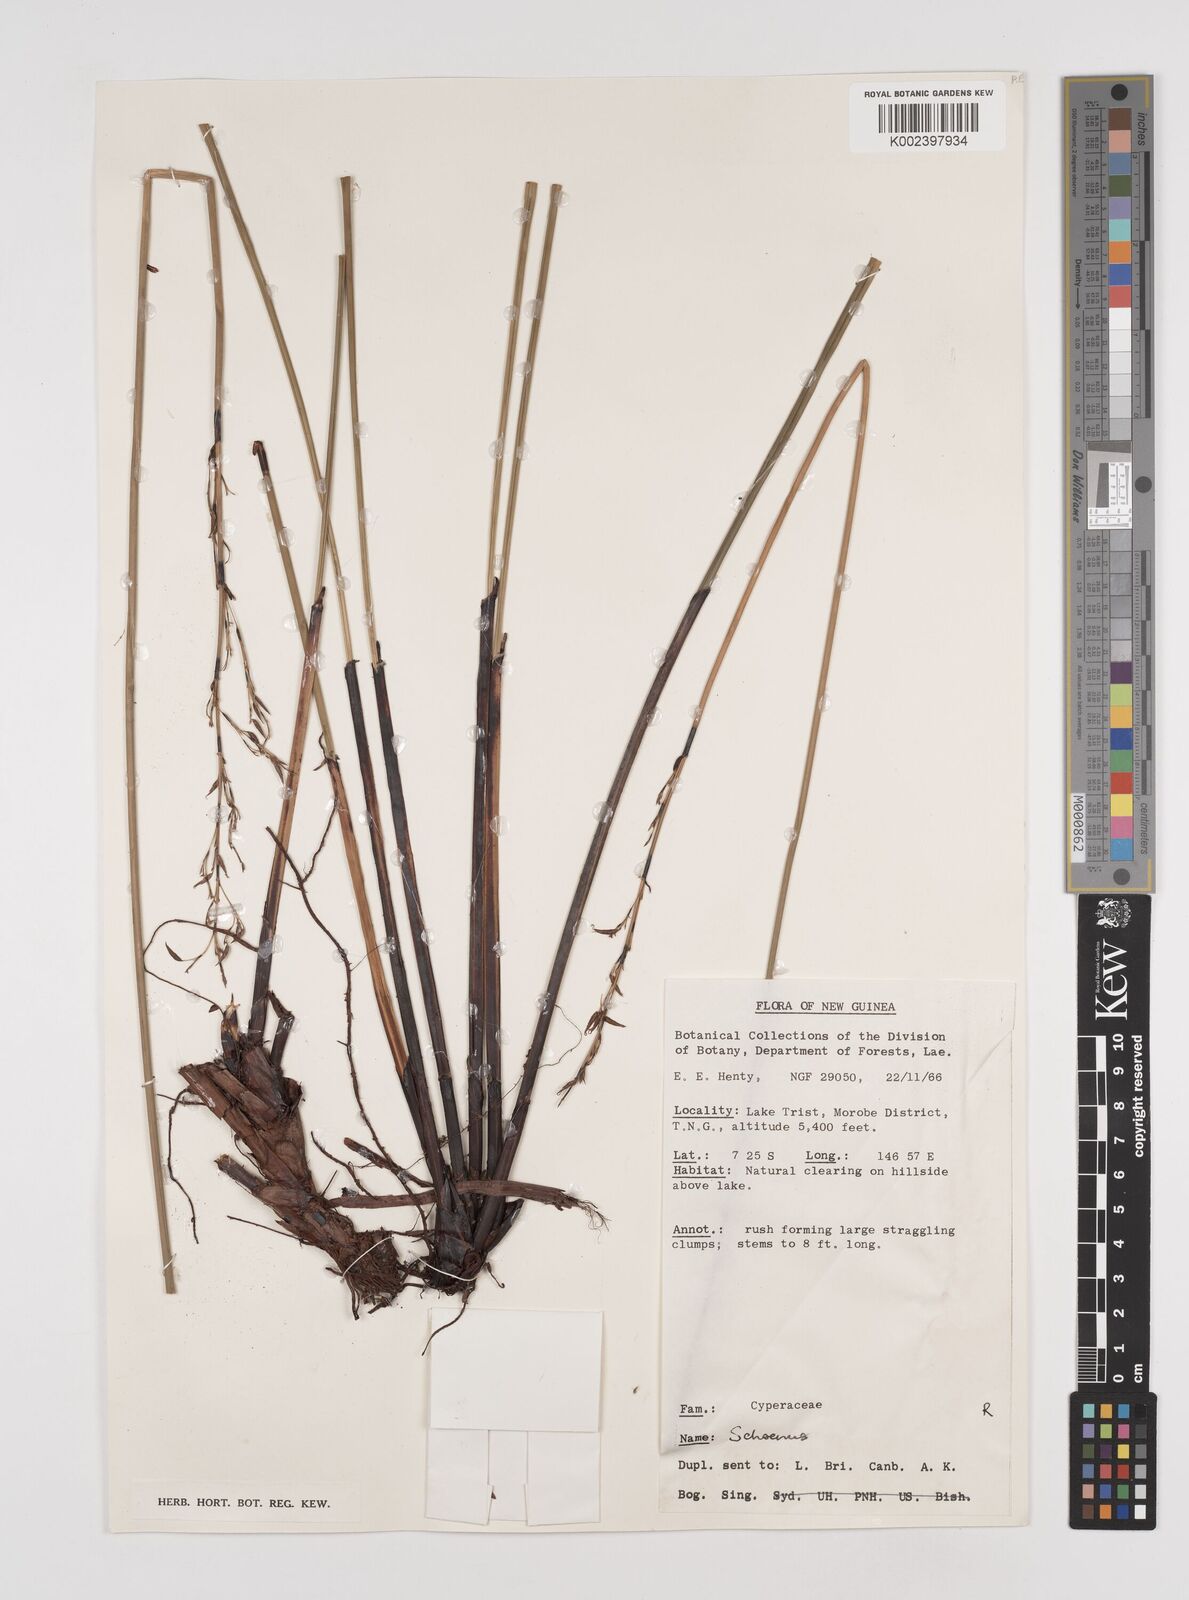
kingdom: Plantae
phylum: Tracheophyta
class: Liliopsida
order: Poales
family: Cyperaceae
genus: Schoenus
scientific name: Schoenus
